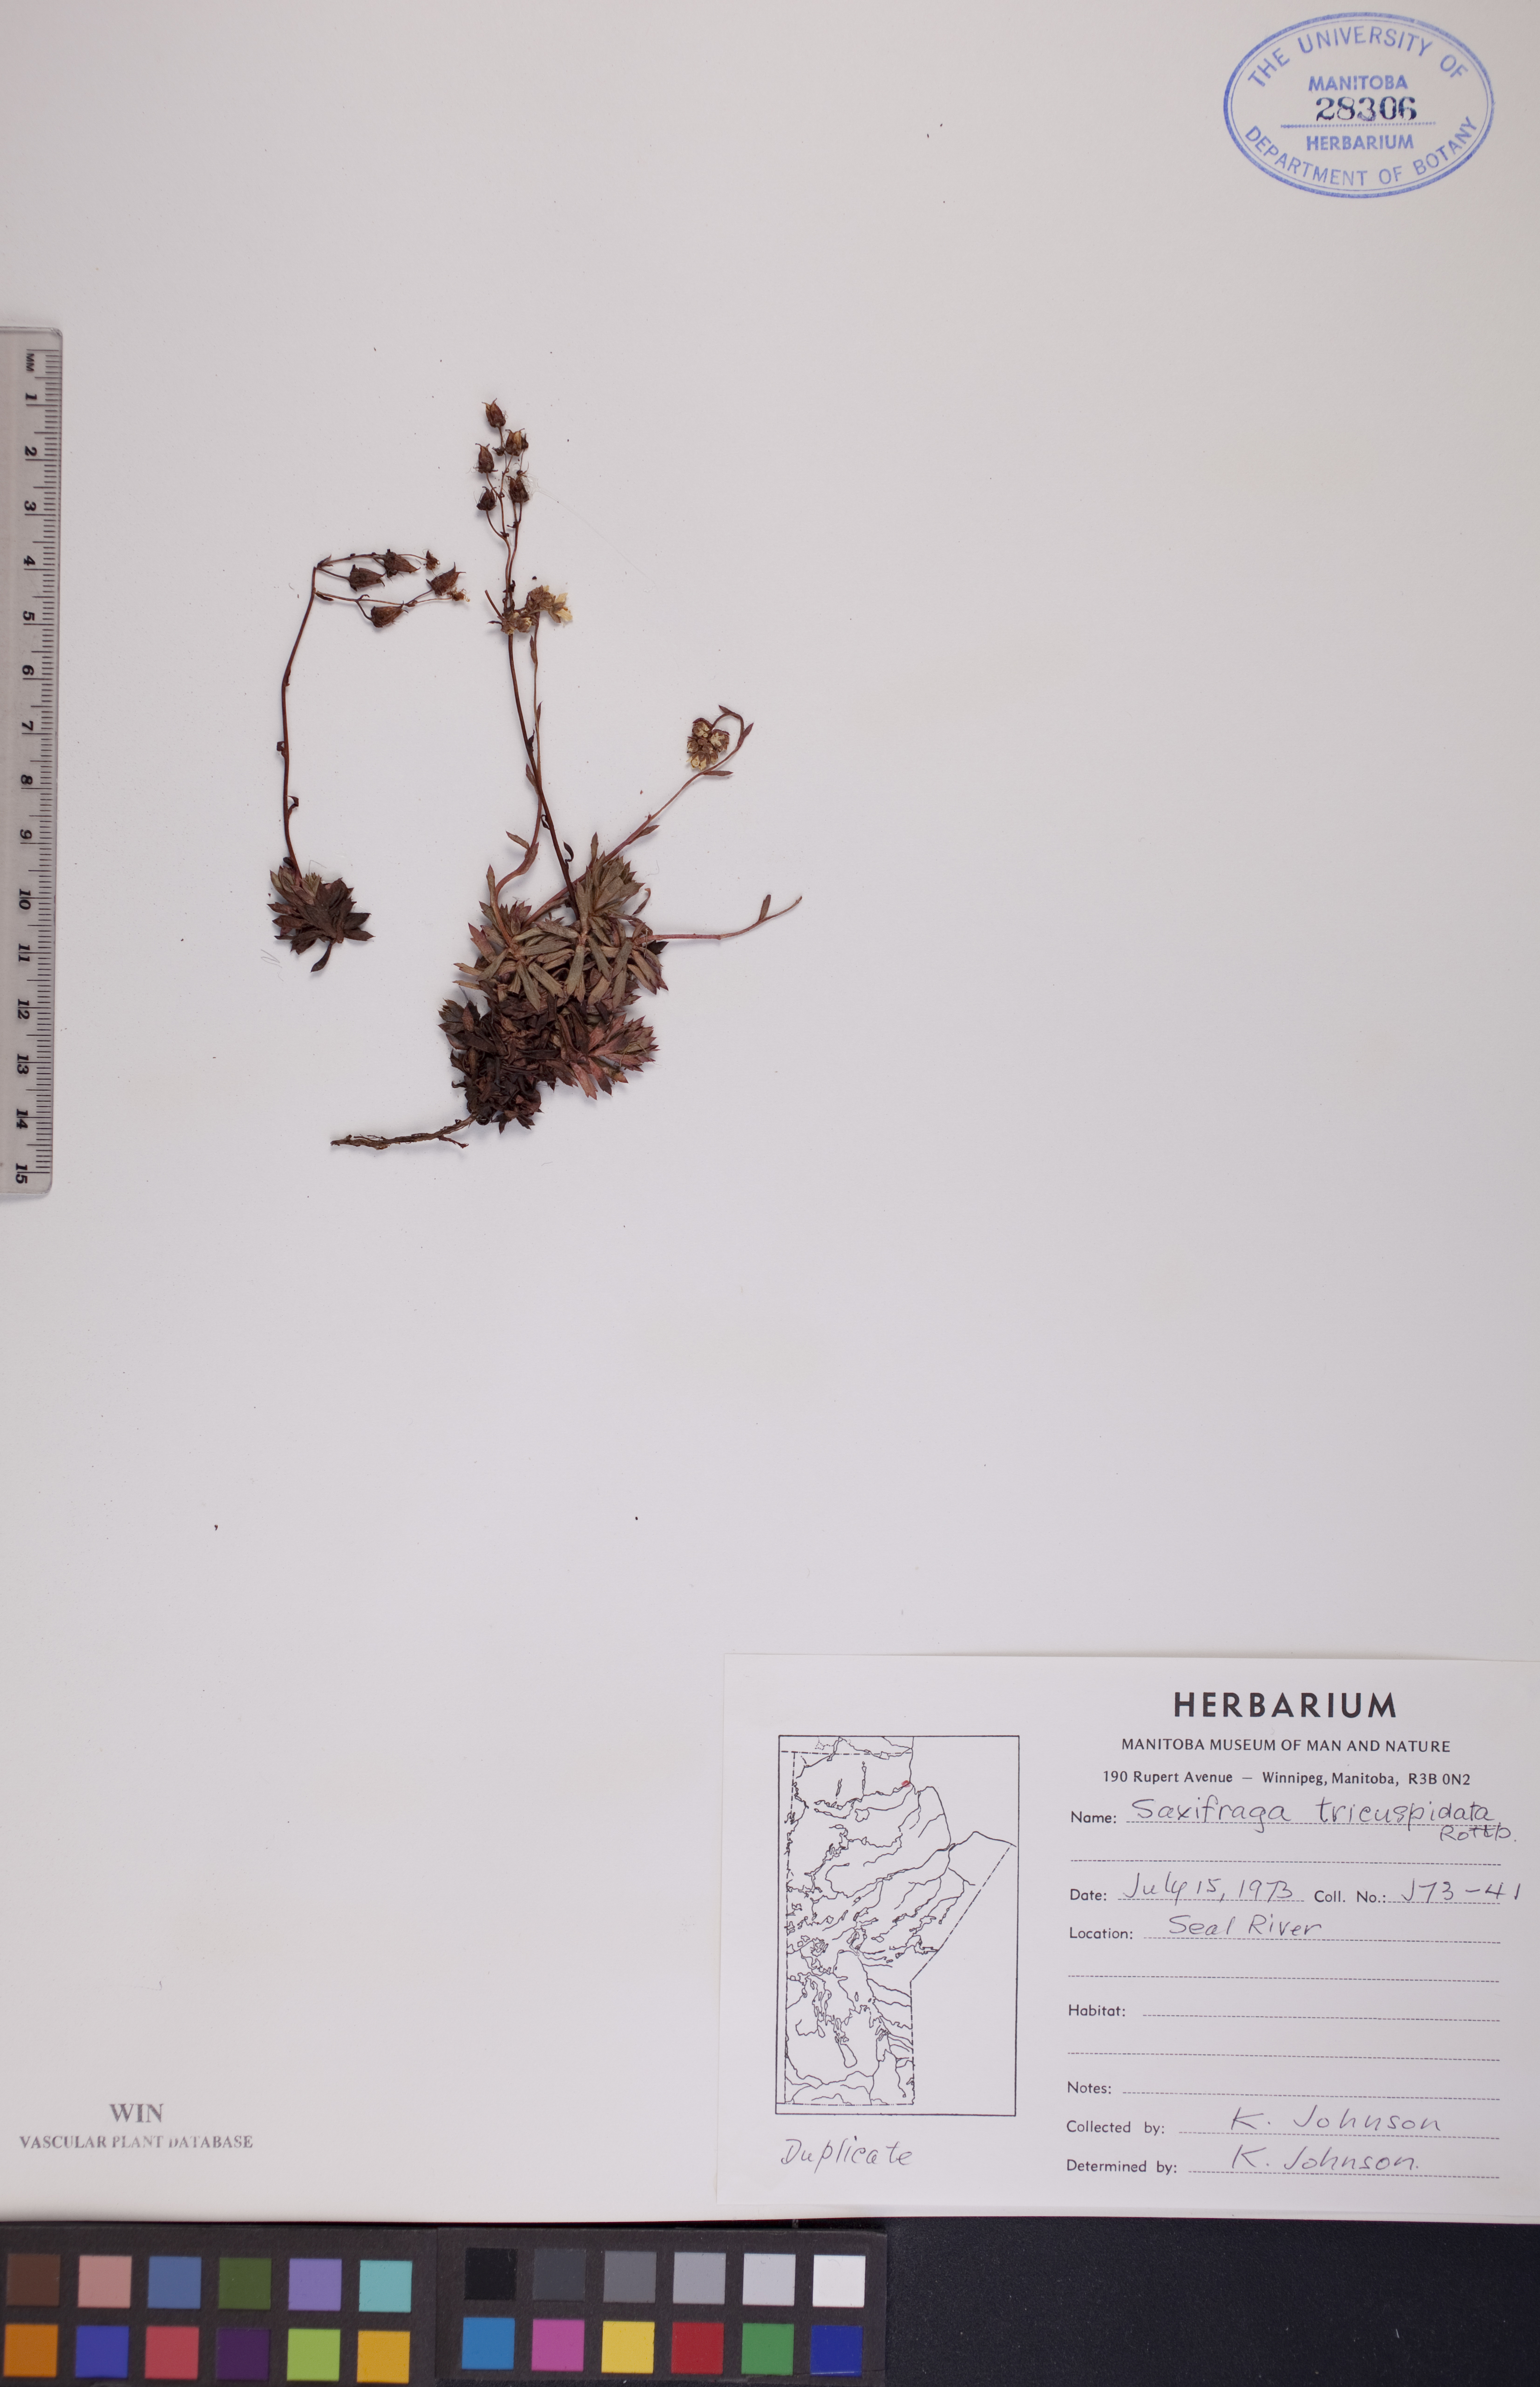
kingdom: Plantae
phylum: Tracheophyta
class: Magnoliopsida
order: Saxifragales
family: Saxifragaceae
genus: Saxifraga
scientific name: Saxifraga tricuspidata
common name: Prickly saxifrage
